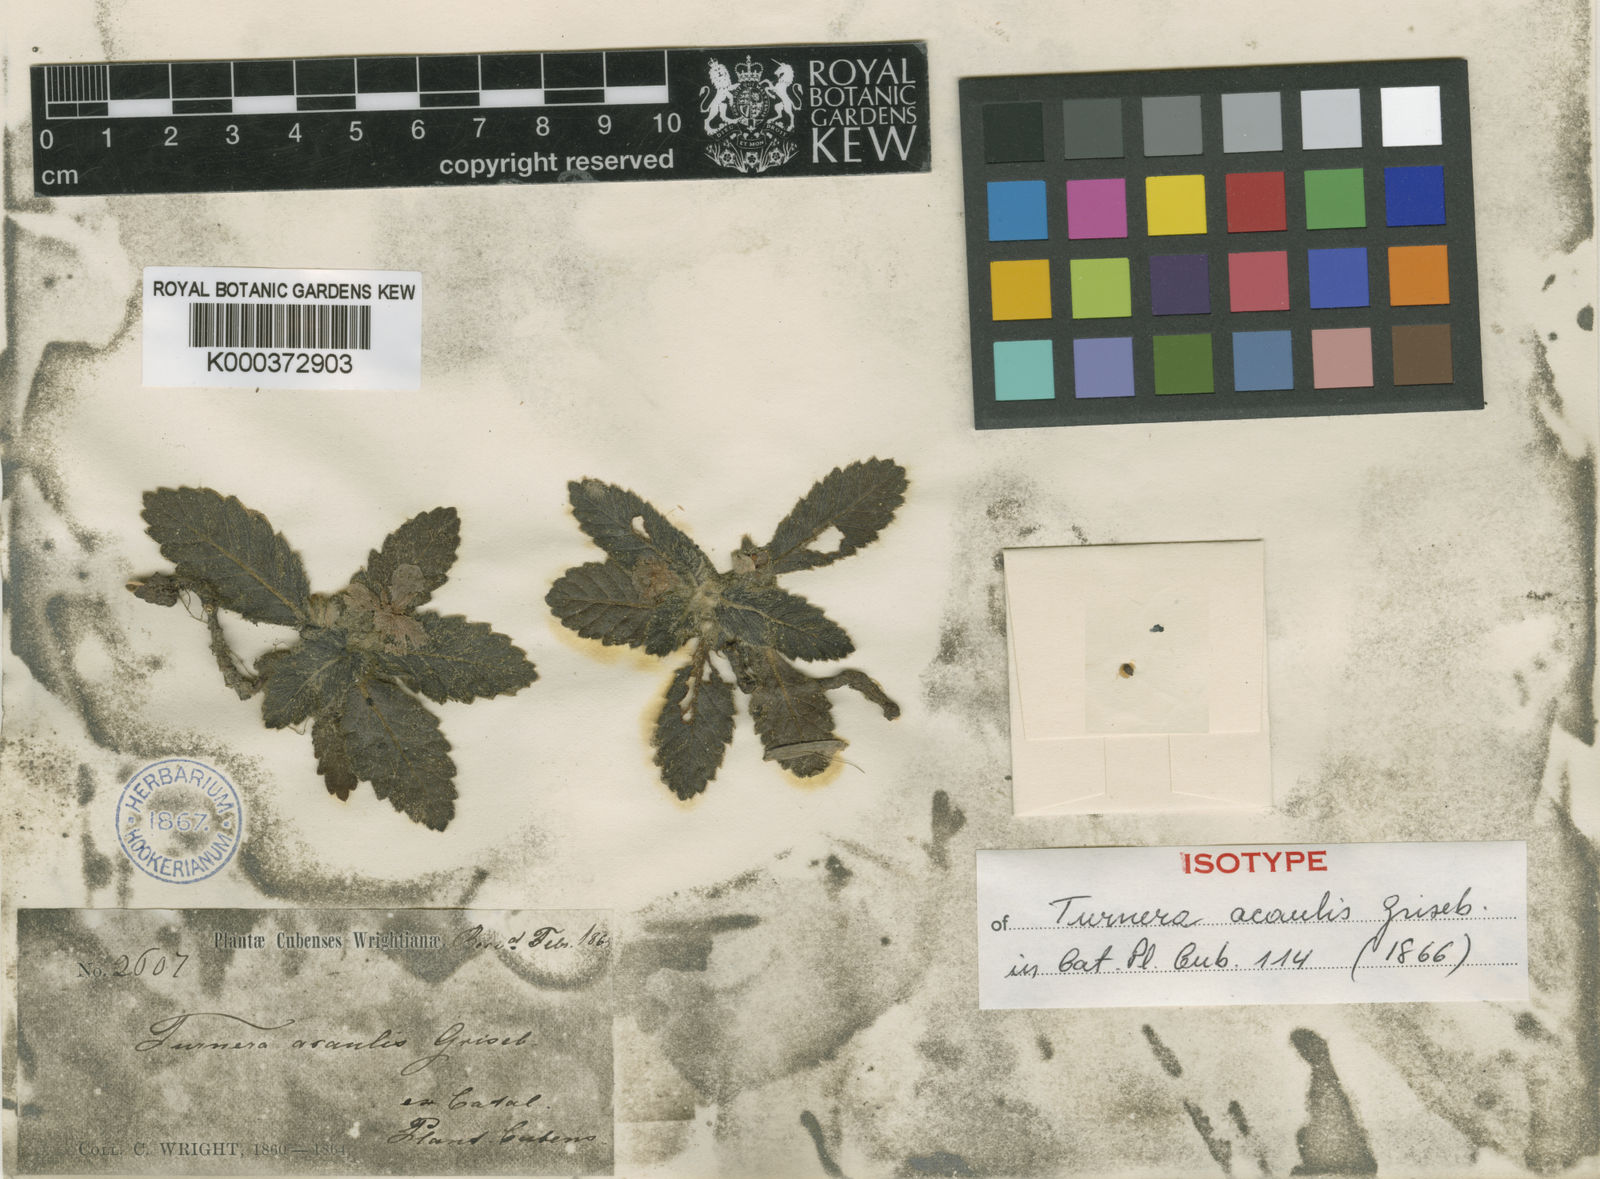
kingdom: Plantae
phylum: Tracheophyta
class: Magnoliopsida
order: Malpighiales
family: Turneraceae
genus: Turnera
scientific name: Turnera acaulis
